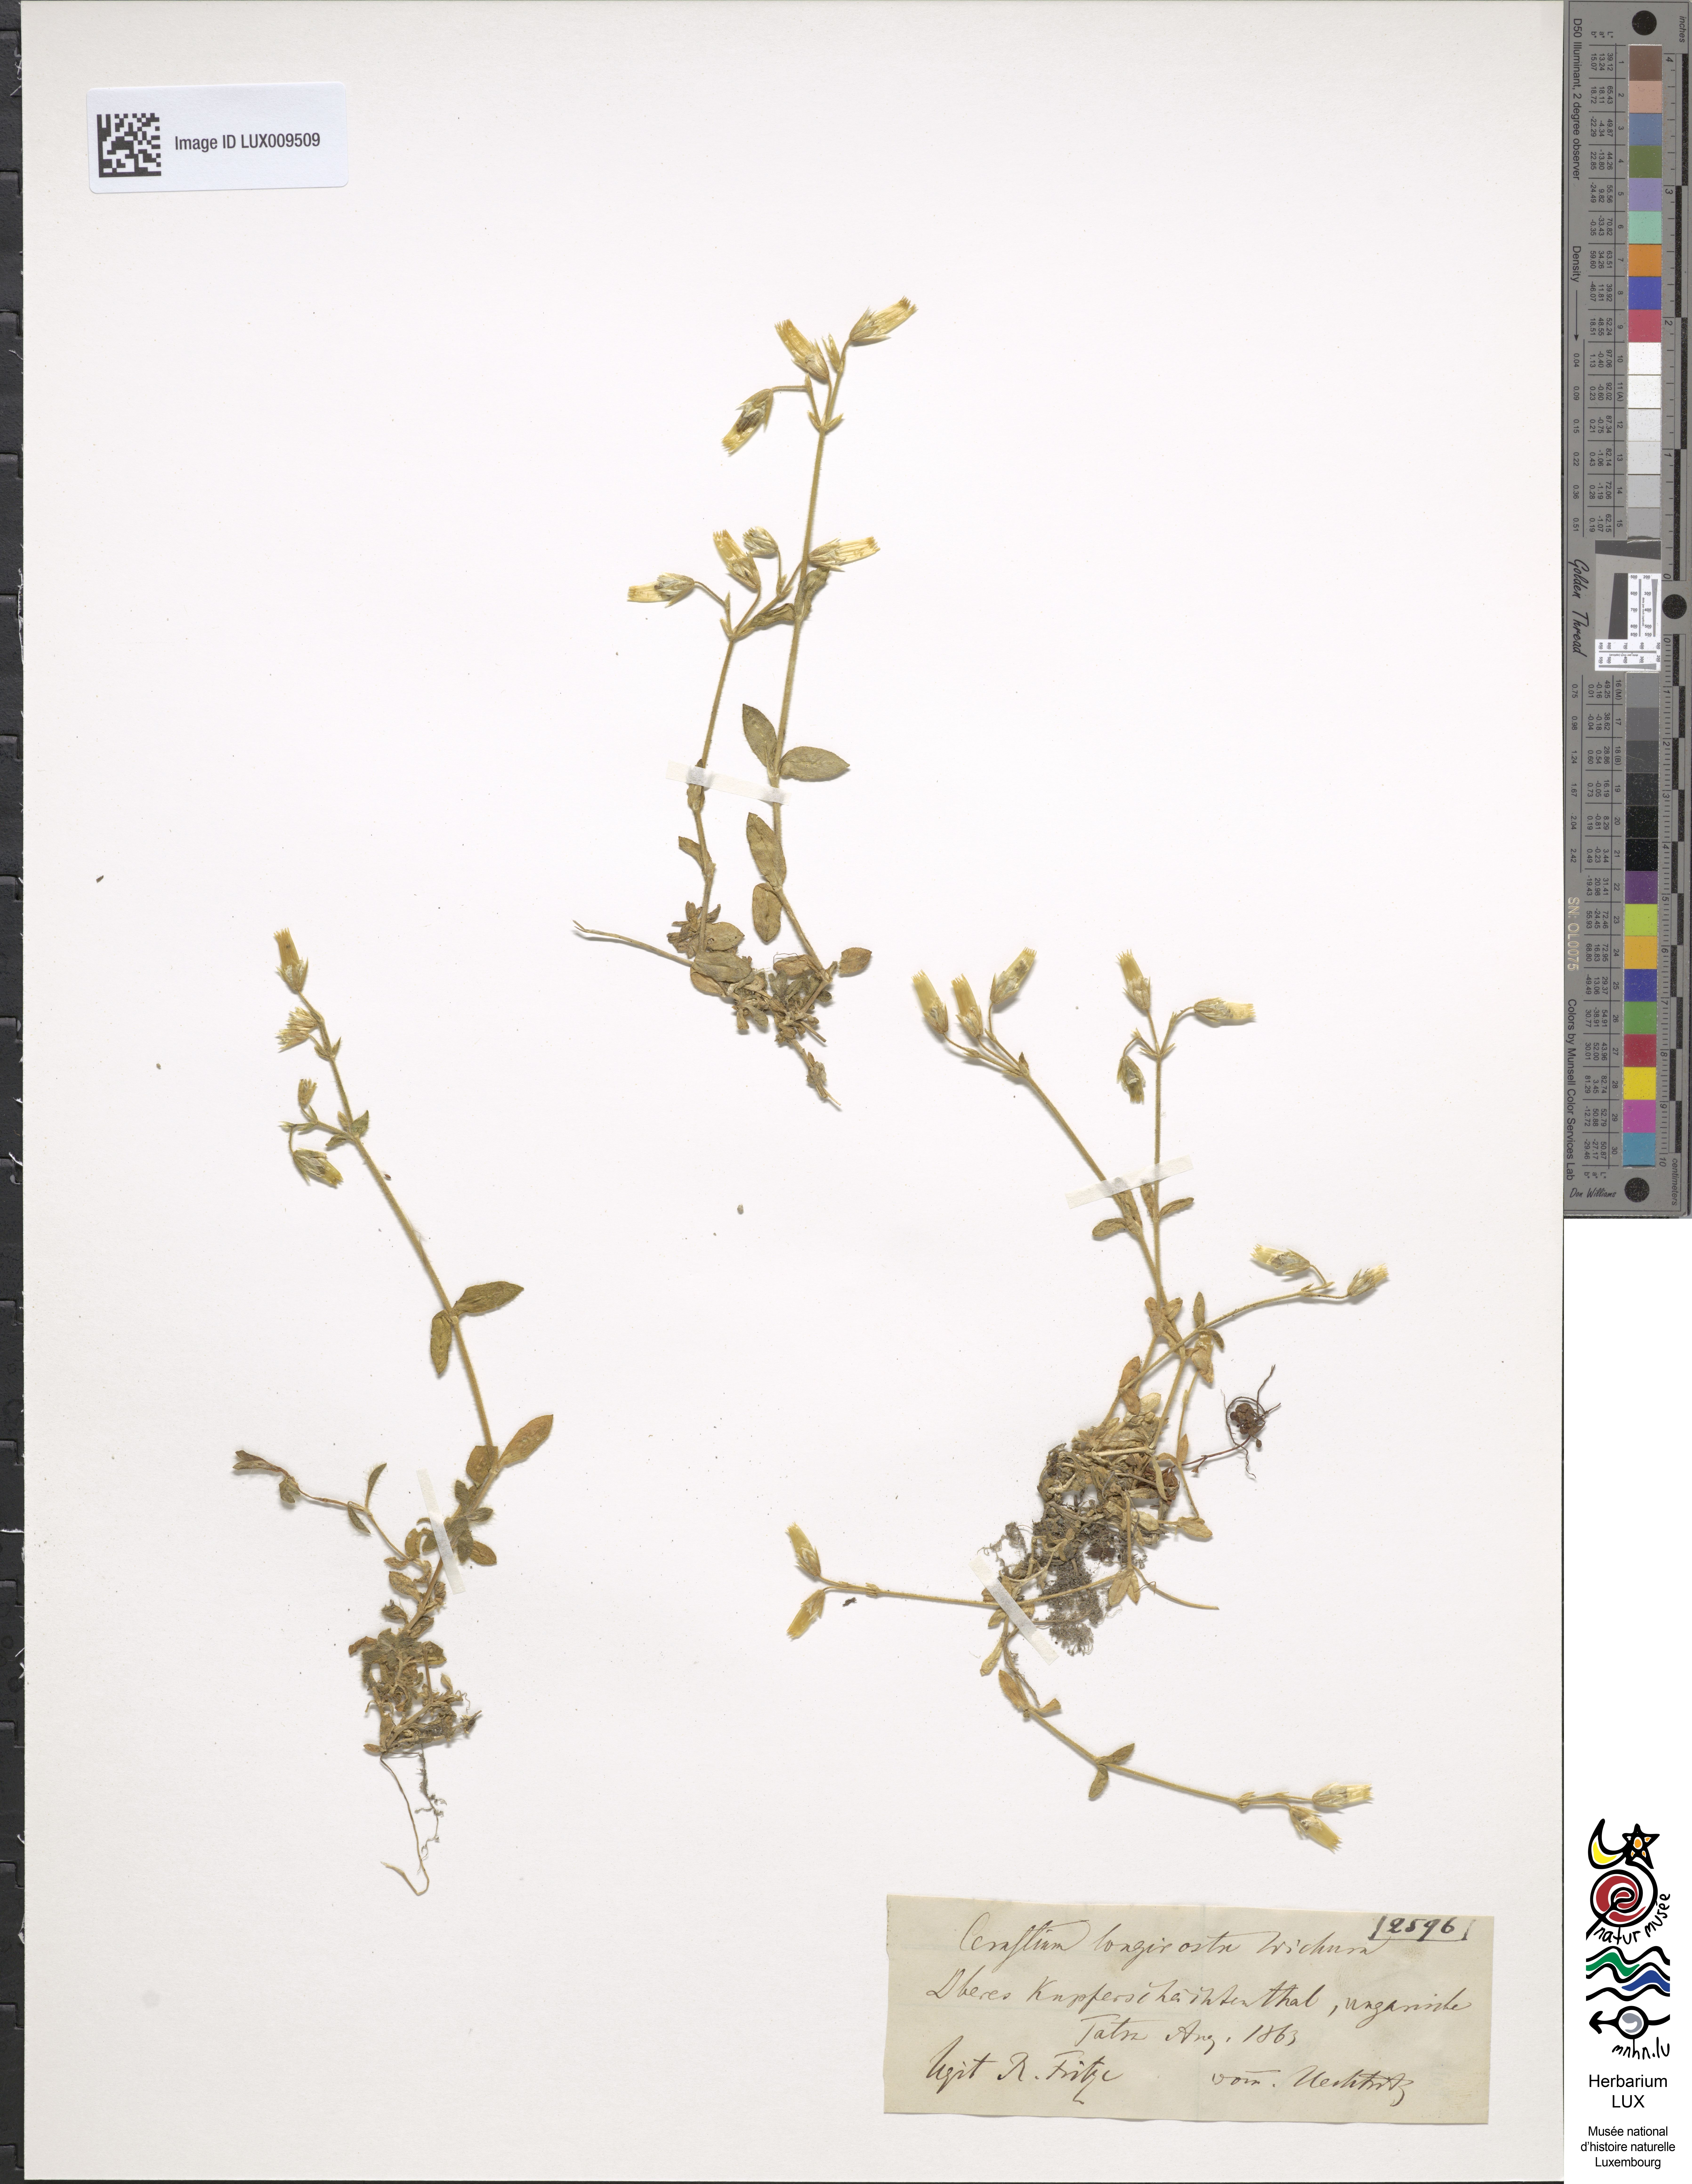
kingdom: Plantae
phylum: Tracheophyta
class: Magnoliopsida
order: Caryophyllales
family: Caryophyllaceae
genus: Cerastium
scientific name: Cerastium fontanum
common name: Common mouse-ear
